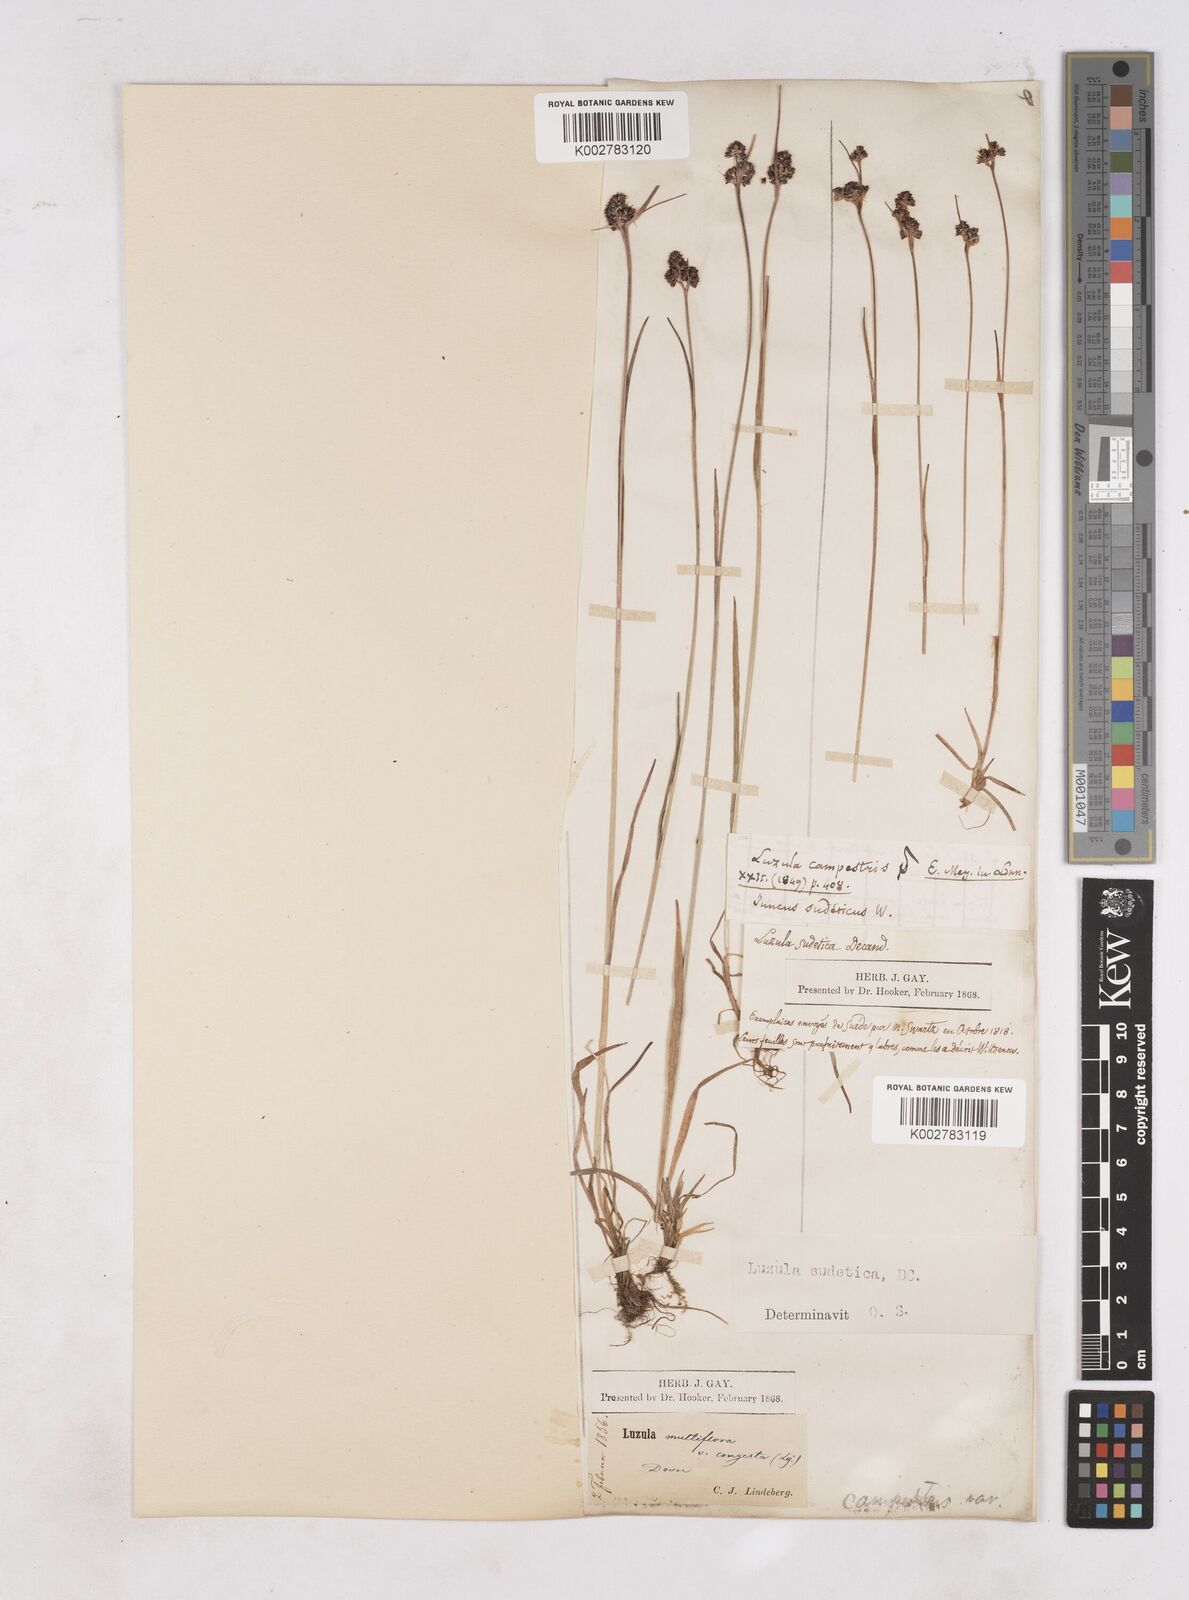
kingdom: Plantae
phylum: Tracheophyta
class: Liliopsida
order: Poales
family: Juncaceae
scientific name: Juncaceae
